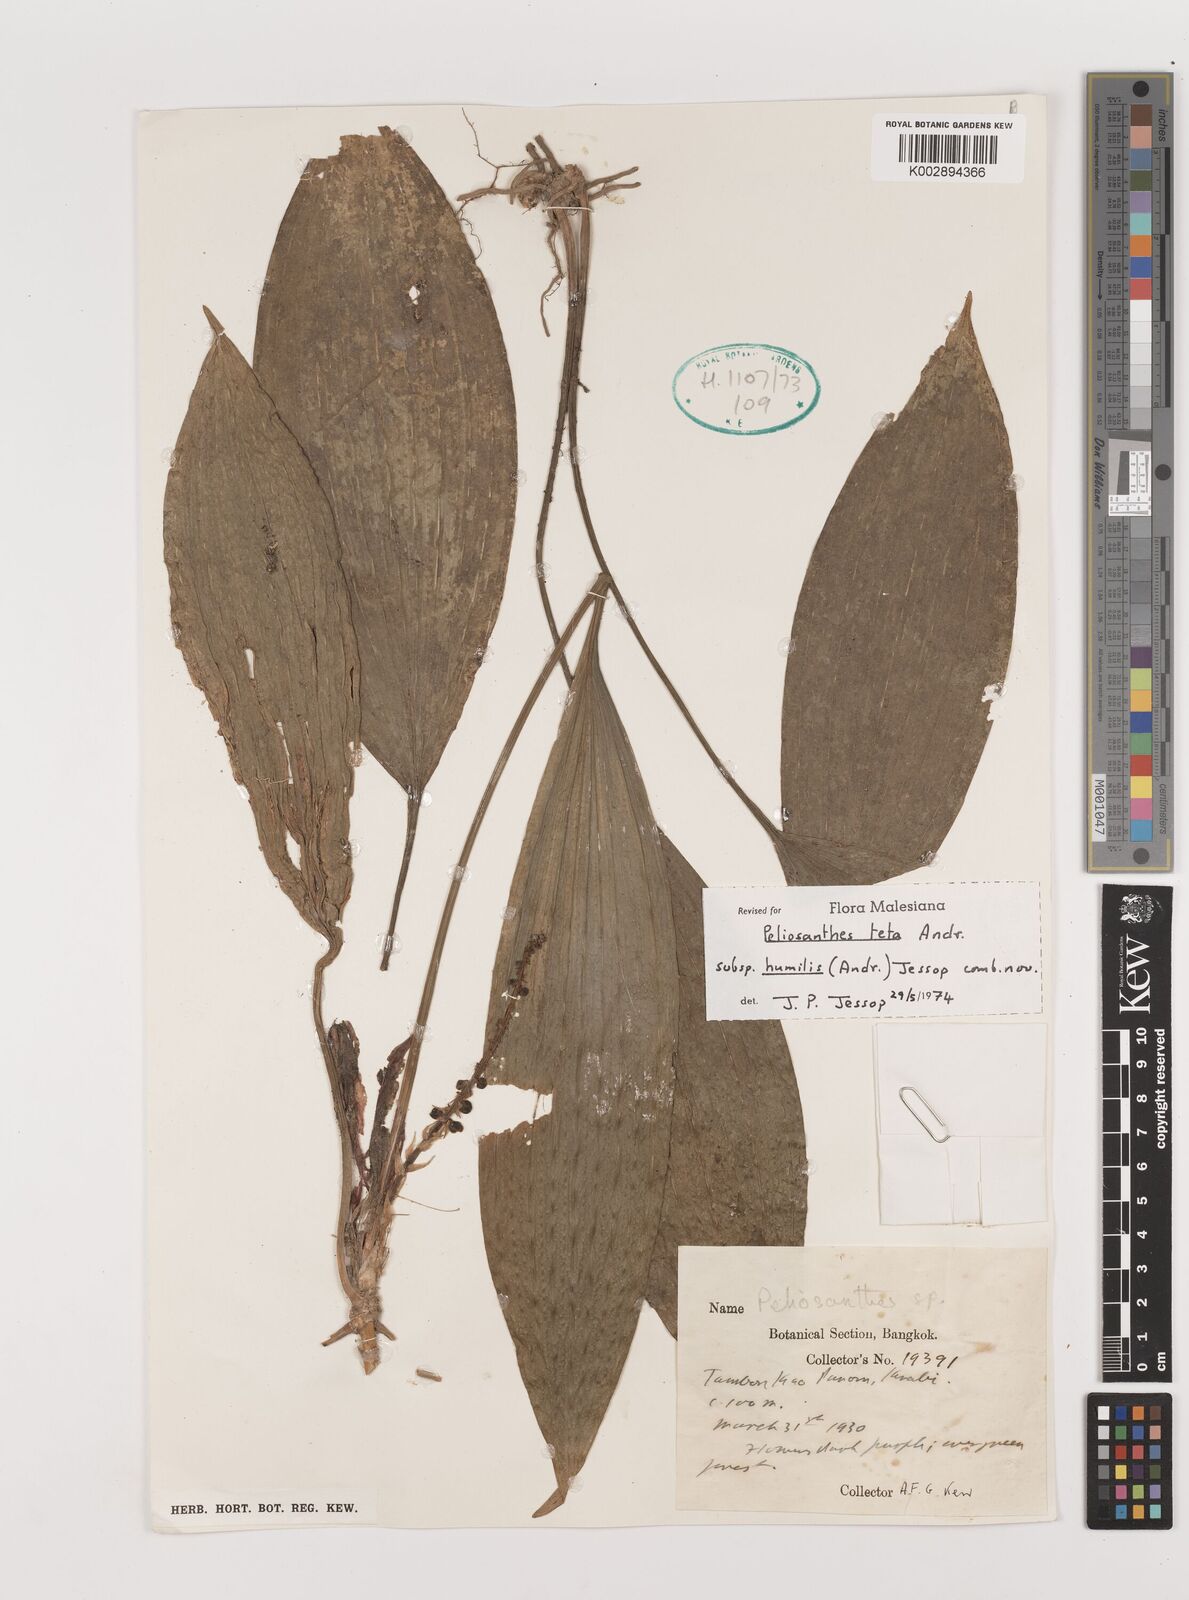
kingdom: Plantae
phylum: Tracheophyta
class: Liliopsida
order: Asparagales
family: Asparagaceae
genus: Peliosanthes
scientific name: Peliosanthes teta
